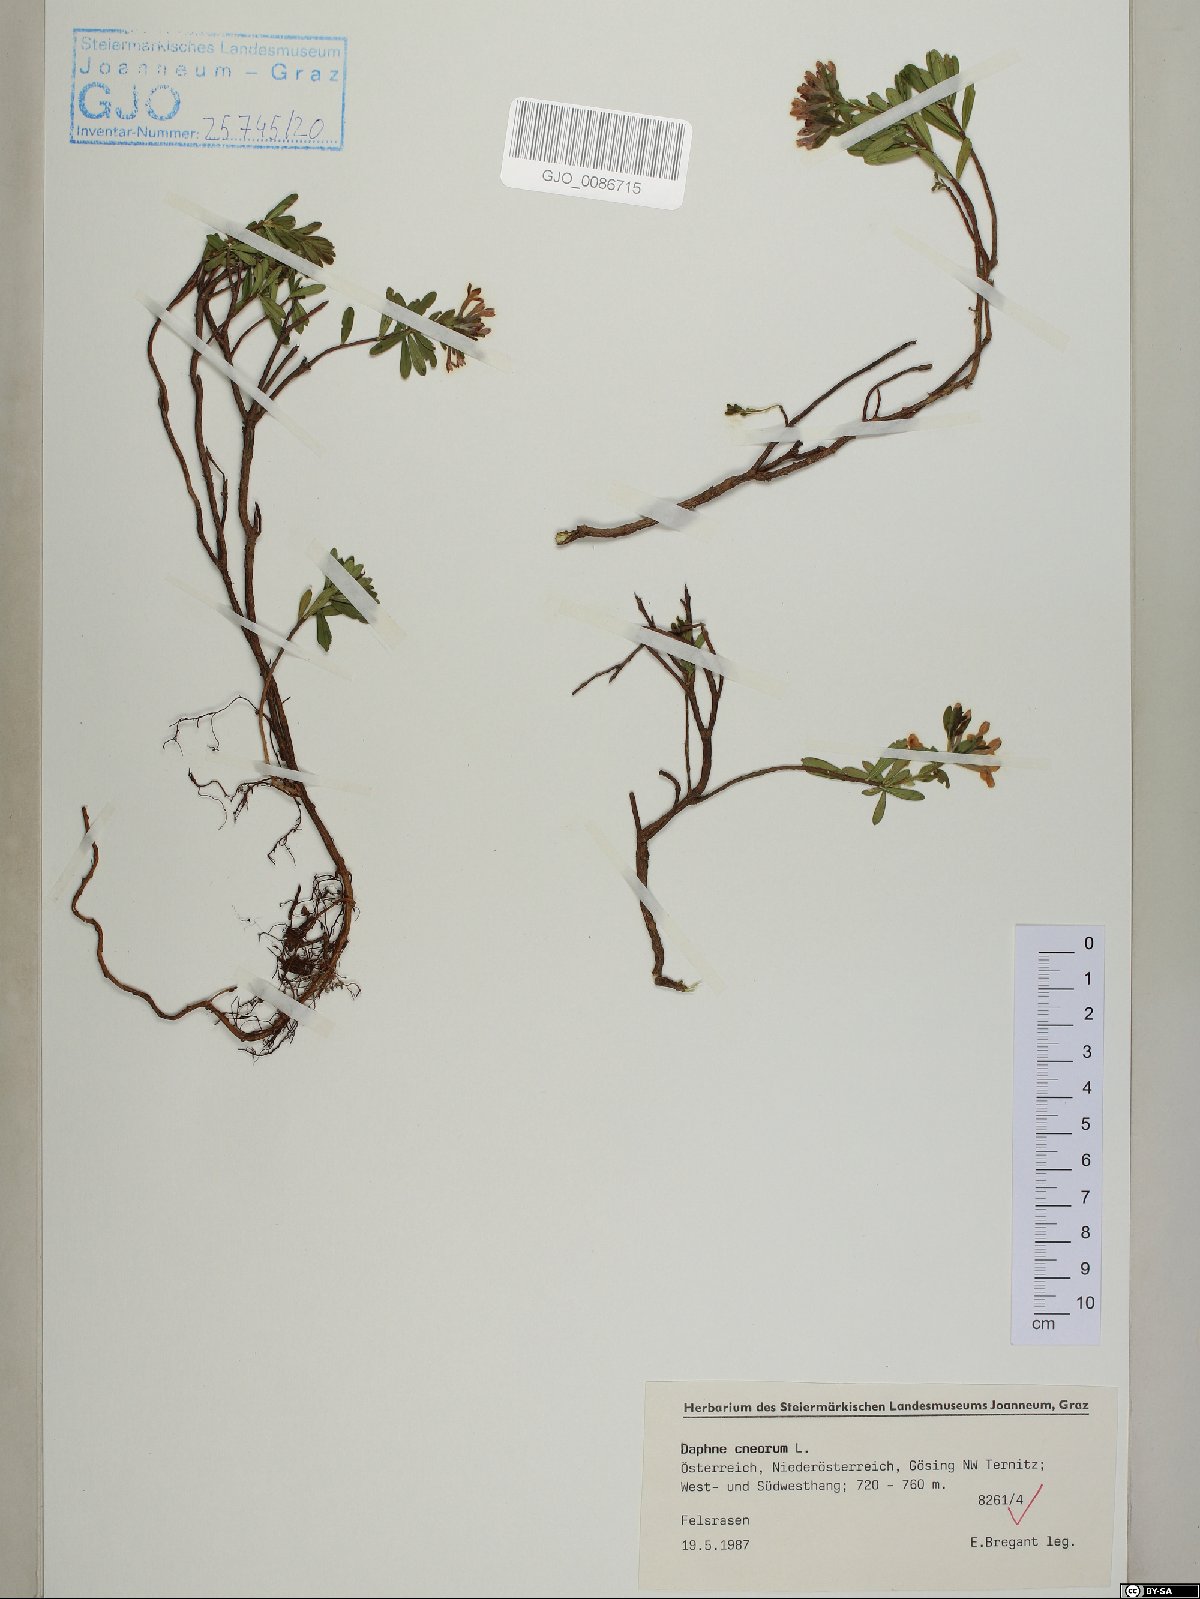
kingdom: Plantae
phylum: Tracheophyta
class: Magnoliopsida
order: Malvales
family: Thymelaeaceae
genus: Daphne
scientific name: Daphne cneorum
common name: Garland-flower
